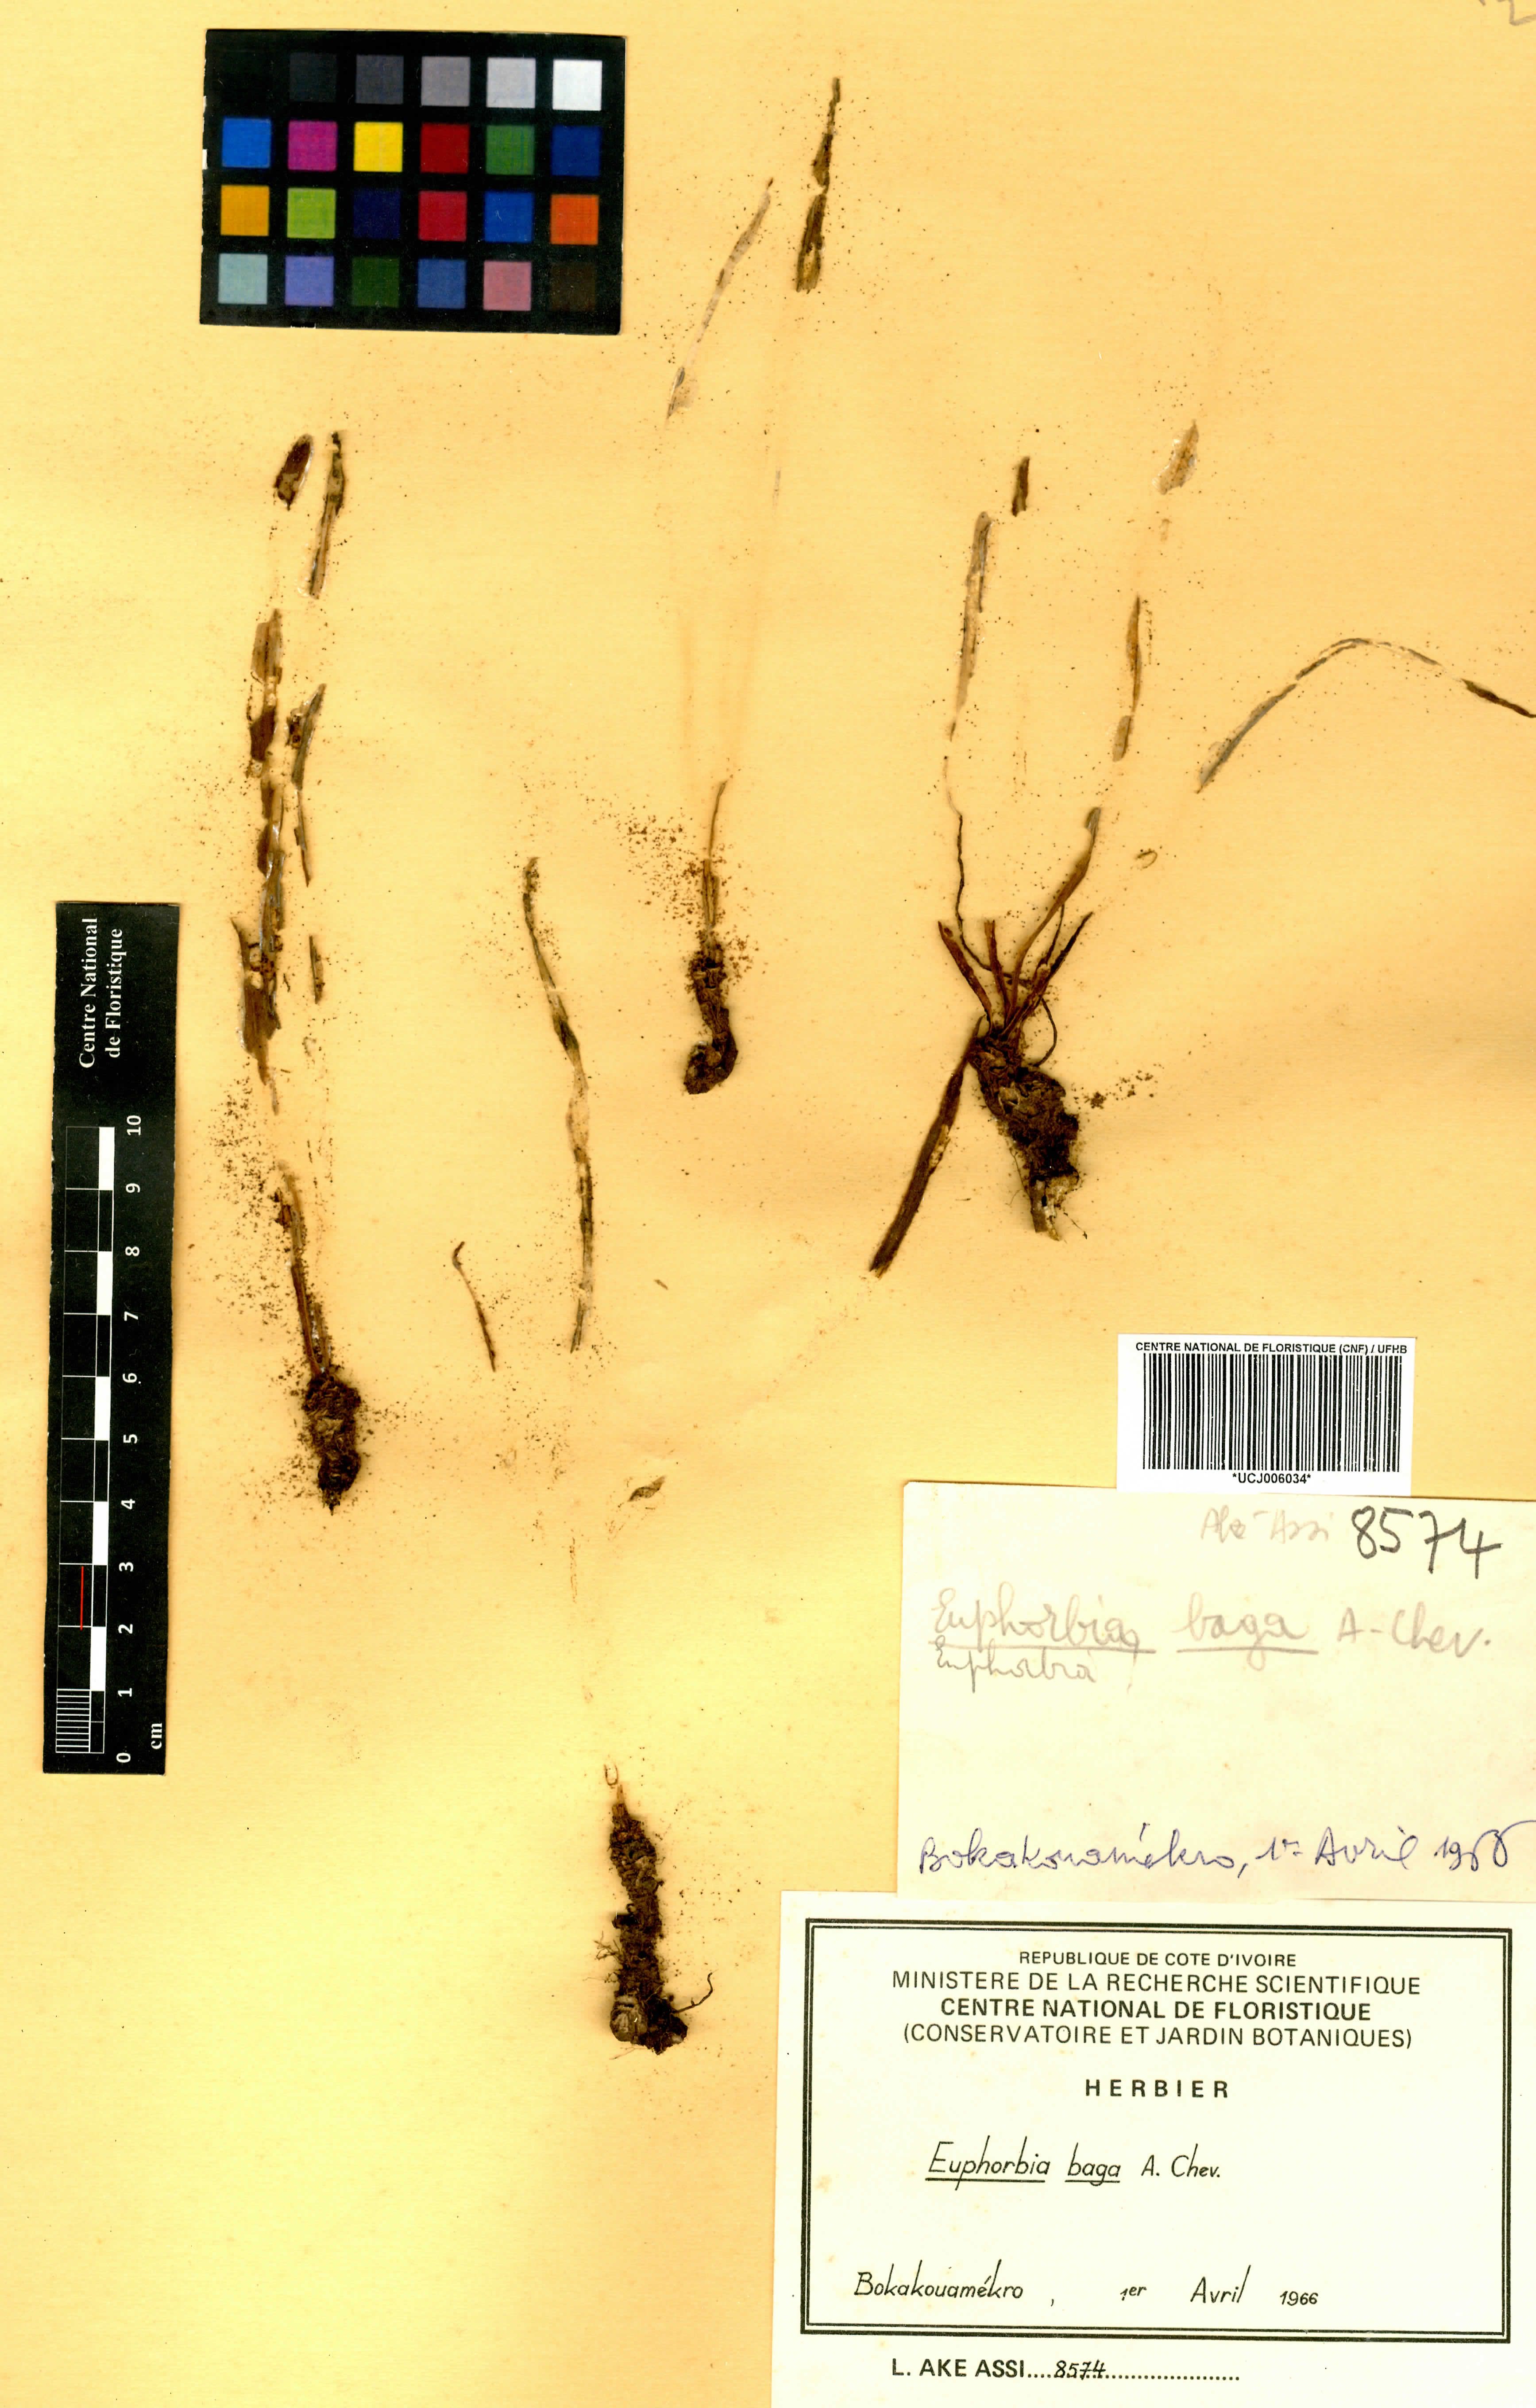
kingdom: Plantae
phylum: Tracheophyta
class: Magnoliopsida
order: Malpighiales
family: Euphorbiaceae
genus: Euphorbia
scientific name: Euphorbia baga
